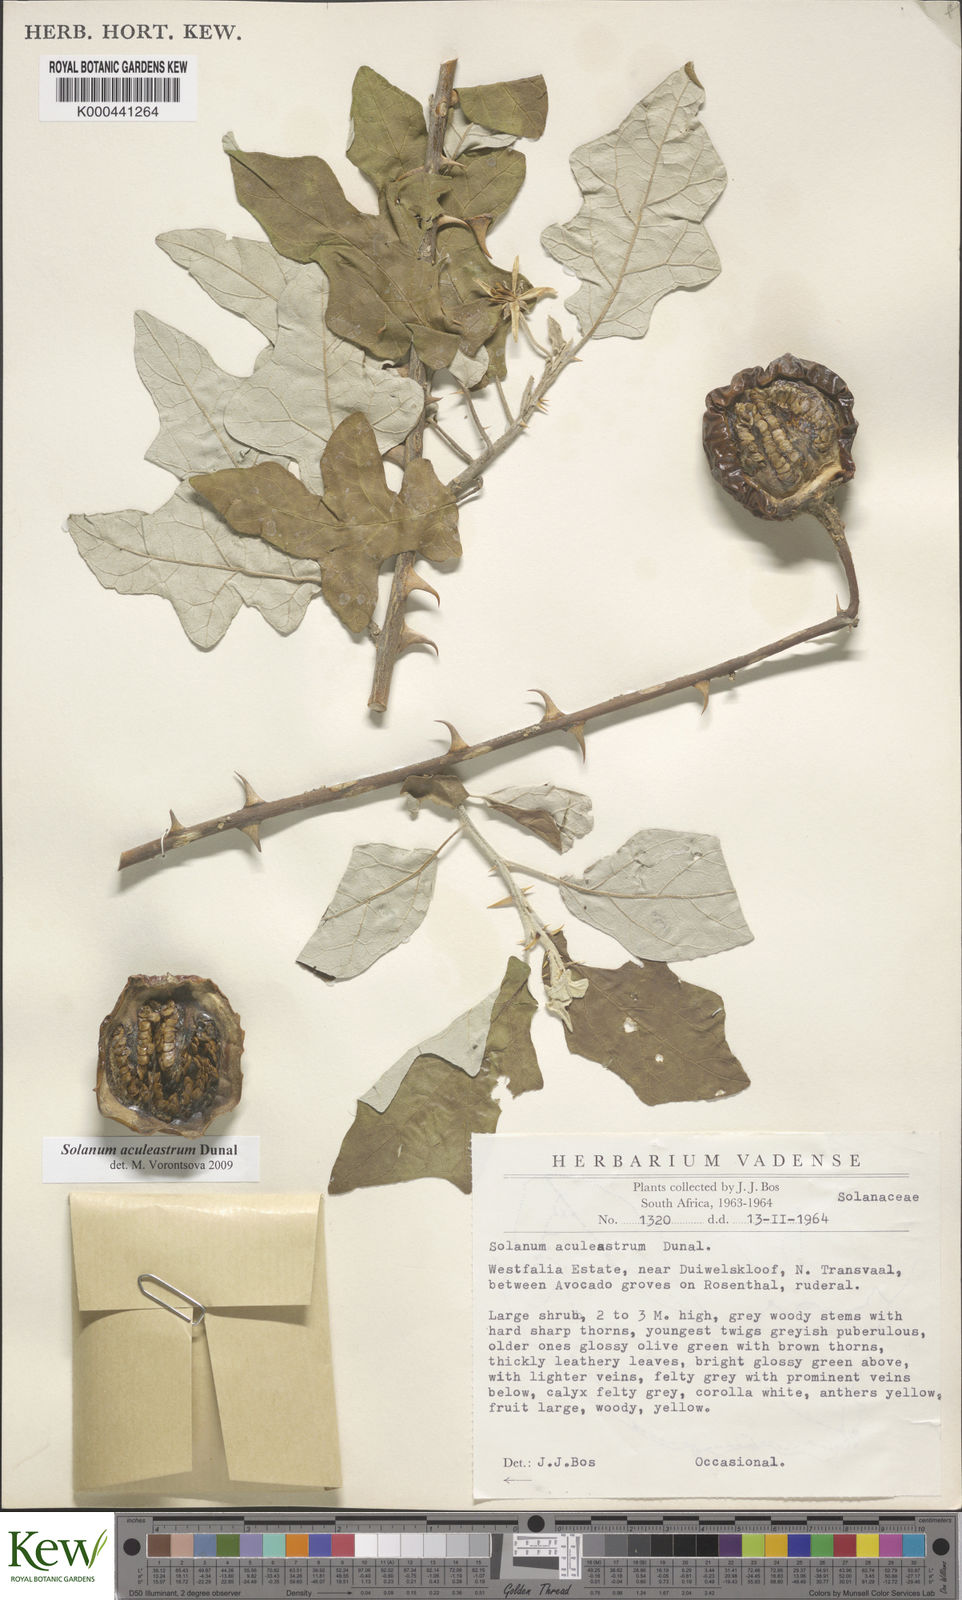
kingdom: Plantae
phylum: Tracheophyta
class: Magnoliopsida
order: Solanales
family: Solanaceae
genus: Solanum
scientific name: Solanum aculeastrum
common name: Goat bitter-apple
